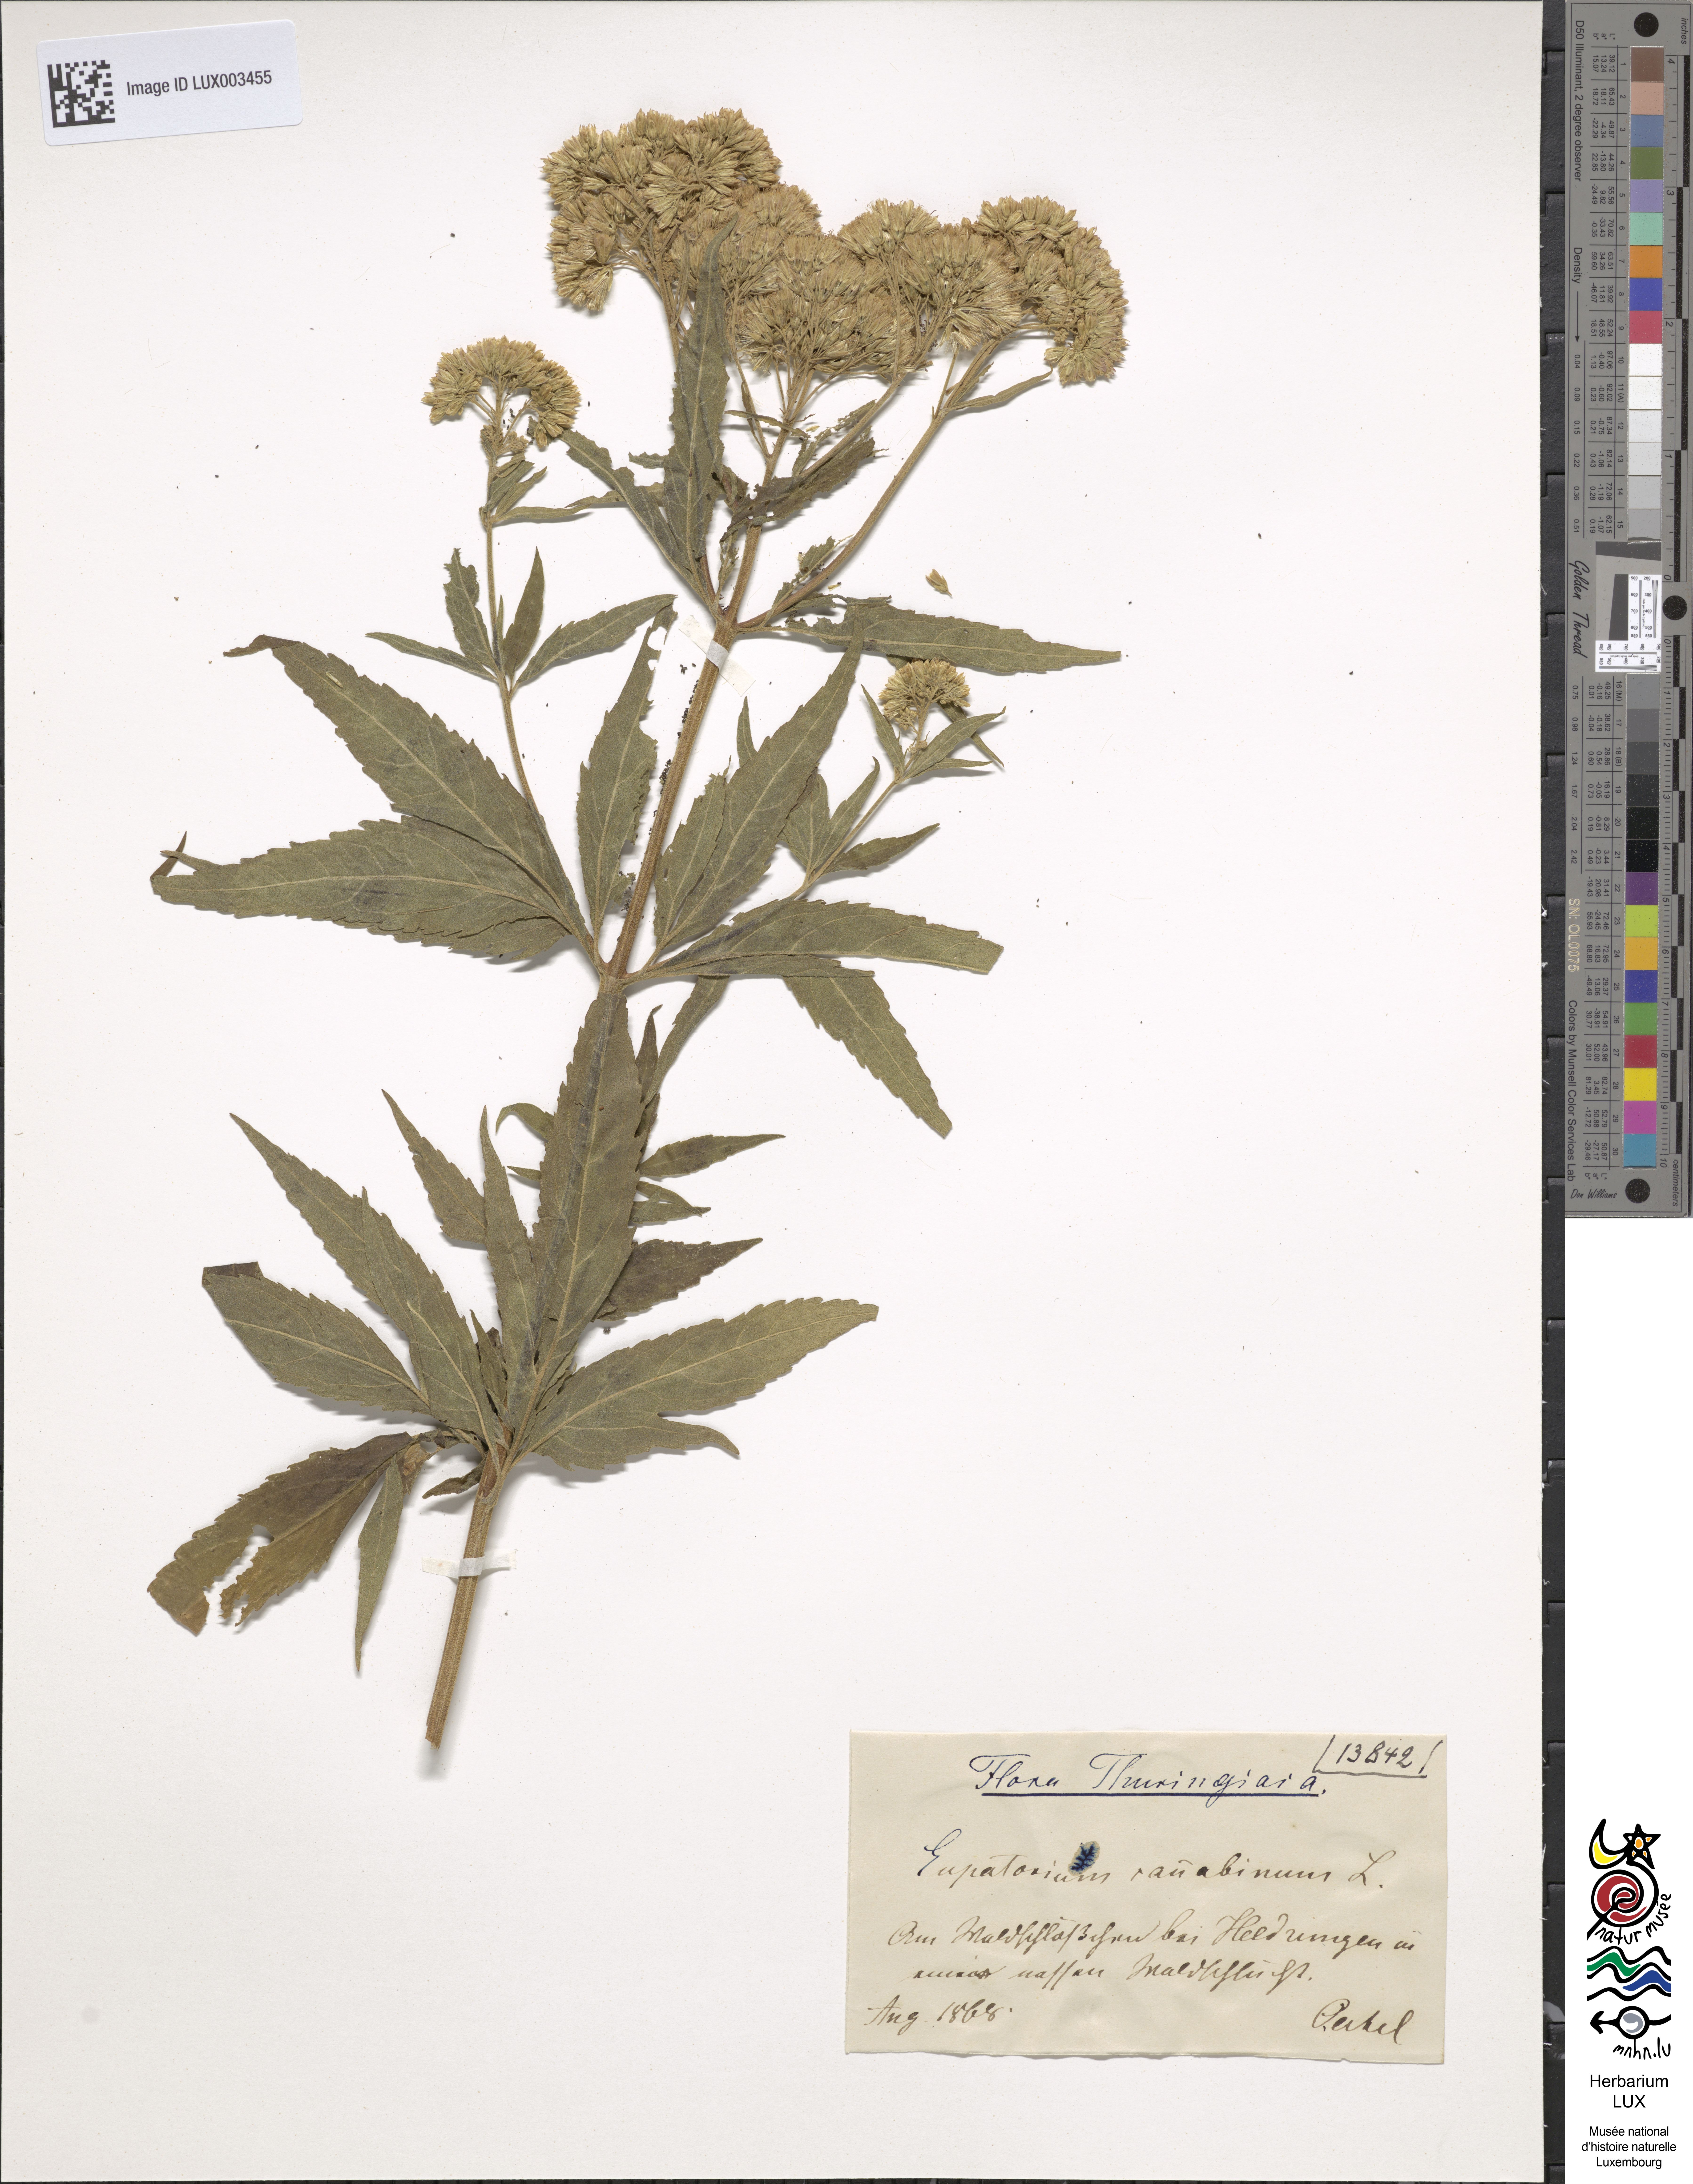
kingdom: Plantae
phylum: Tracheophyta
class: Magnoliopsida
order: Asterales
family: Asteraceae
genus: Eupatorium
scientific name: Eupatorium cannabinum
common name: Hemp-agrimony
